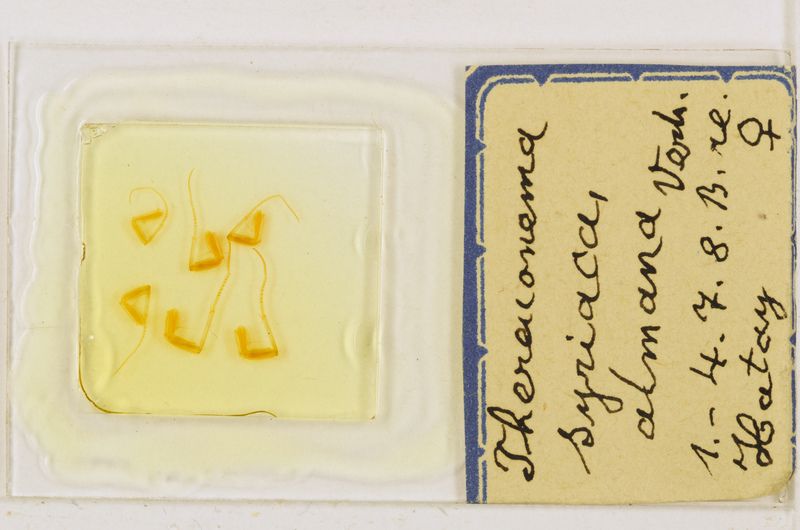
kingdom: Animalia
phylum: Arthropoda
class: Chilopoda
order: Scutigeromorpha
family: Scutigeridae
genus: Thereuonema
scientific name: Thereuonema microstoma
